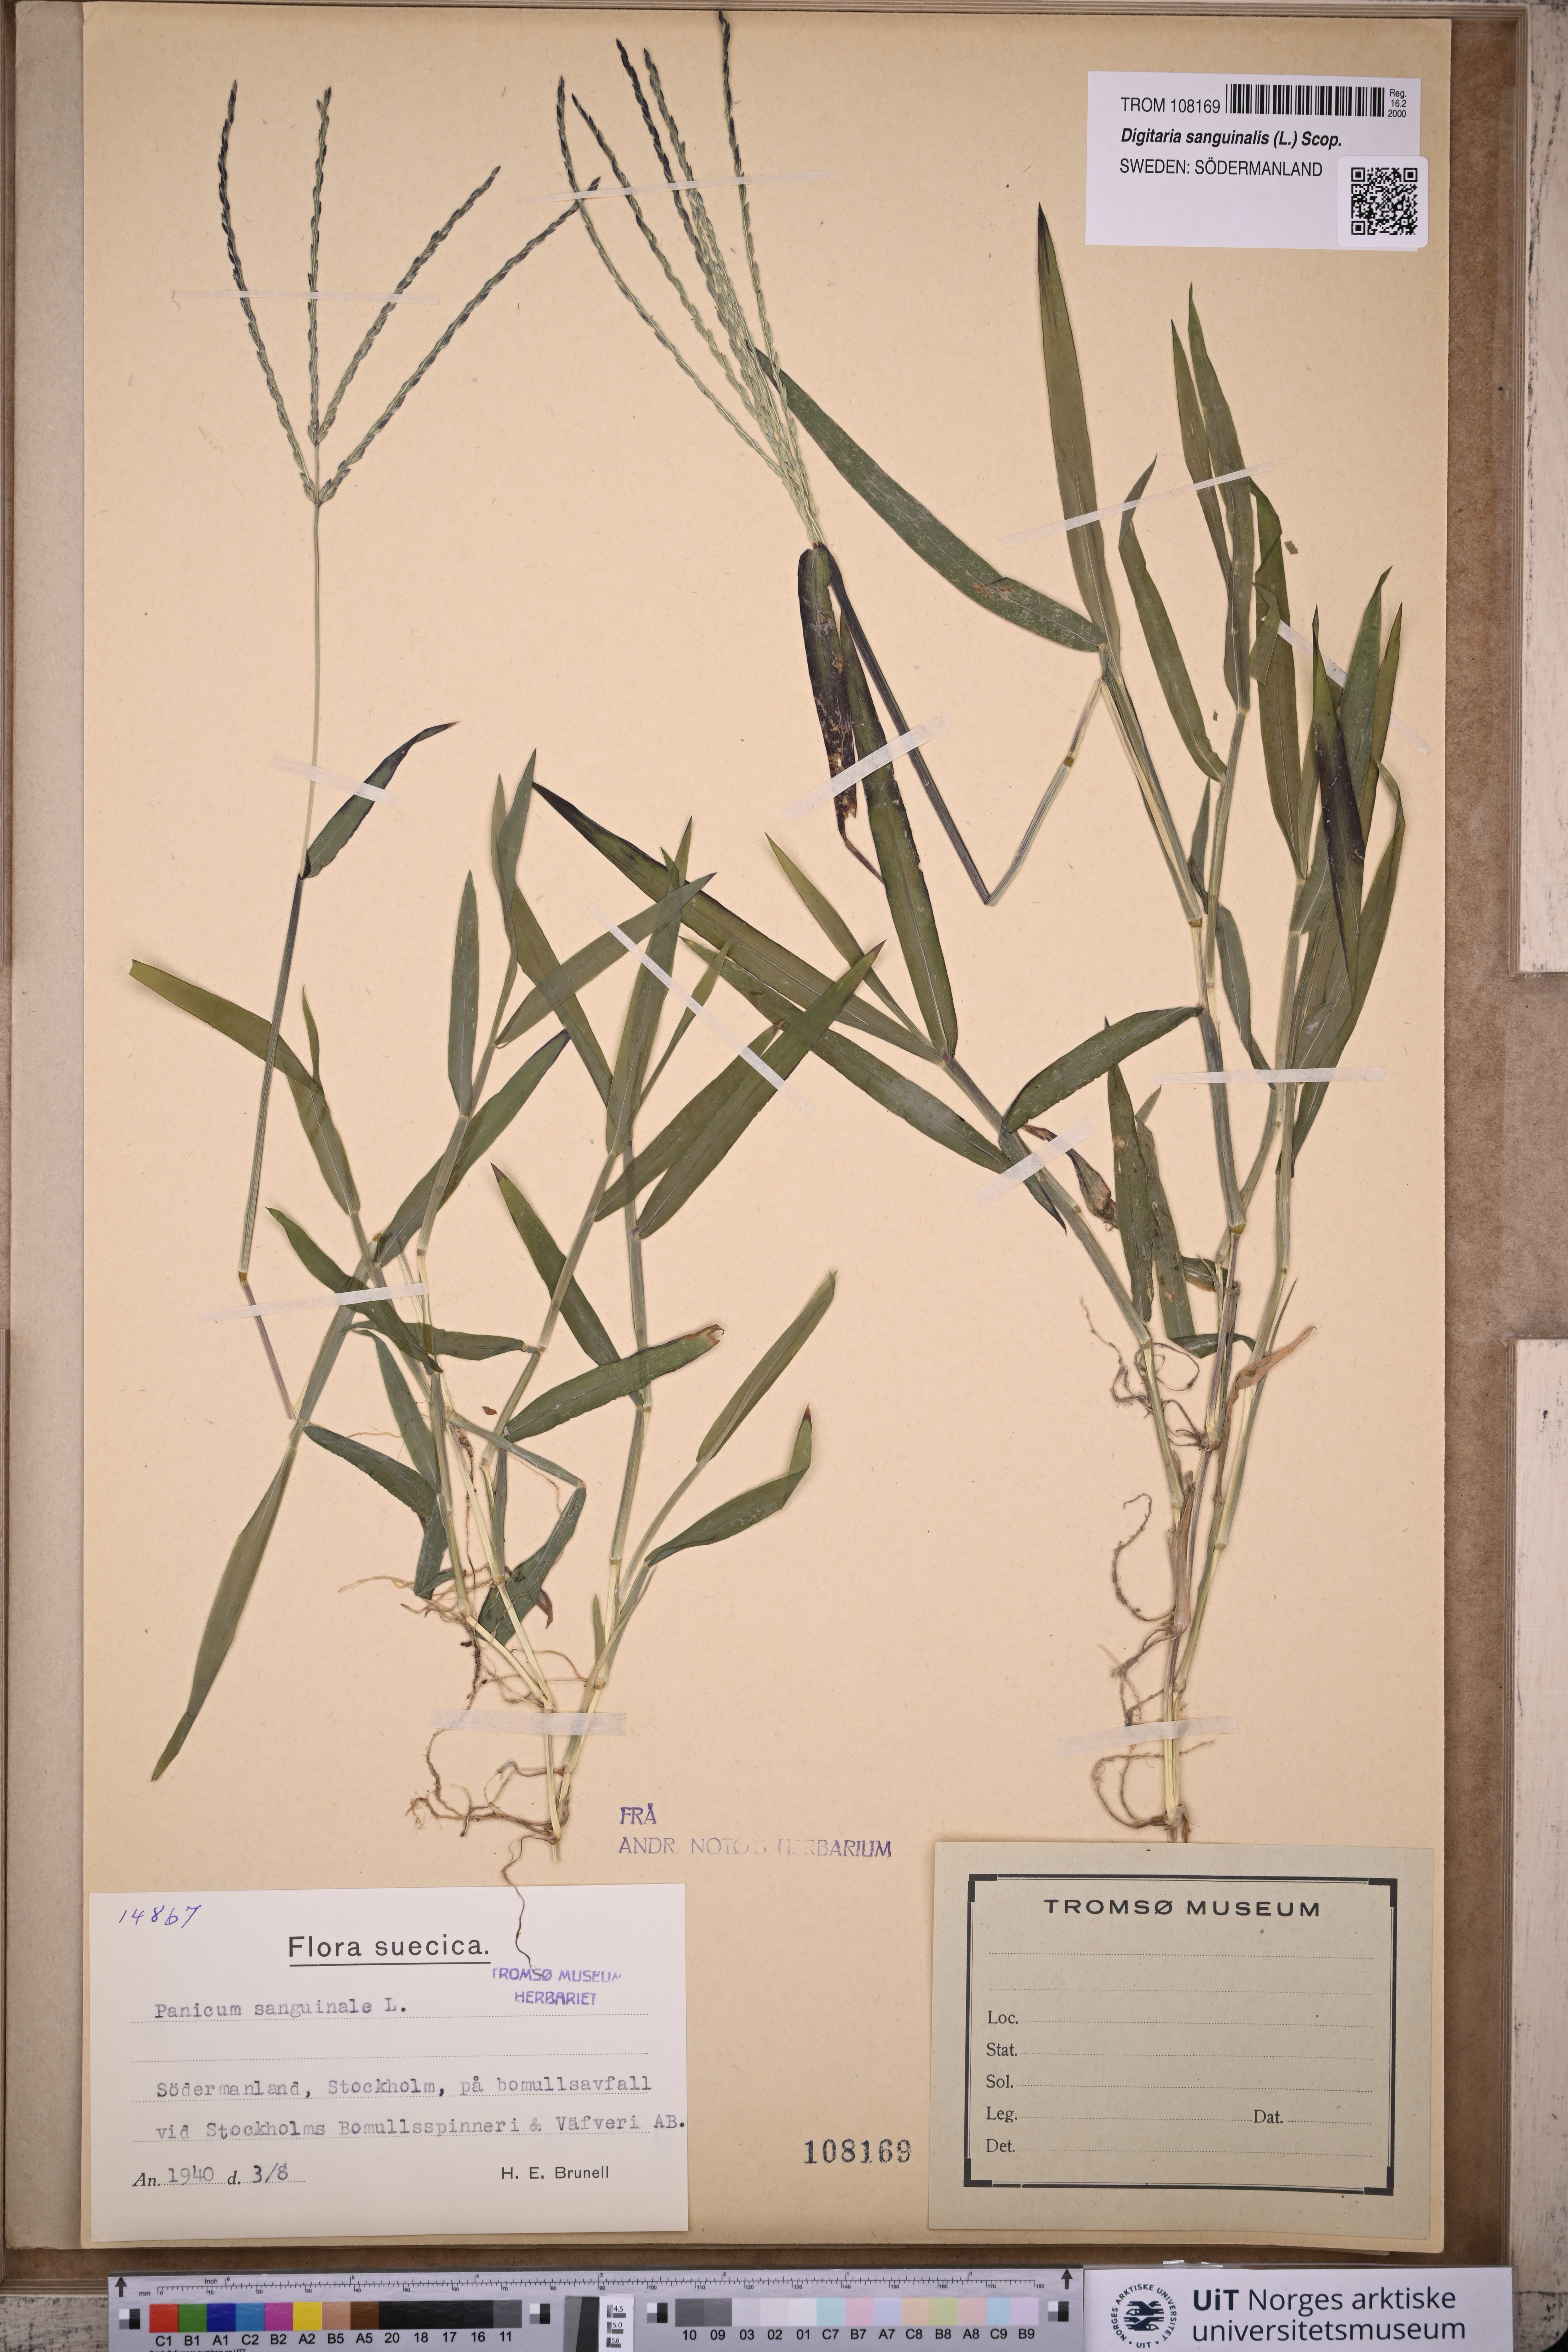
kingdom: Plantae
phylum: Tracheophyta
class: Liliopsida
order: Poales
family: Poaceae
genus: Digitaria
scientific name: Digitaria sanguinalis
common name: Hairy crabgrass
